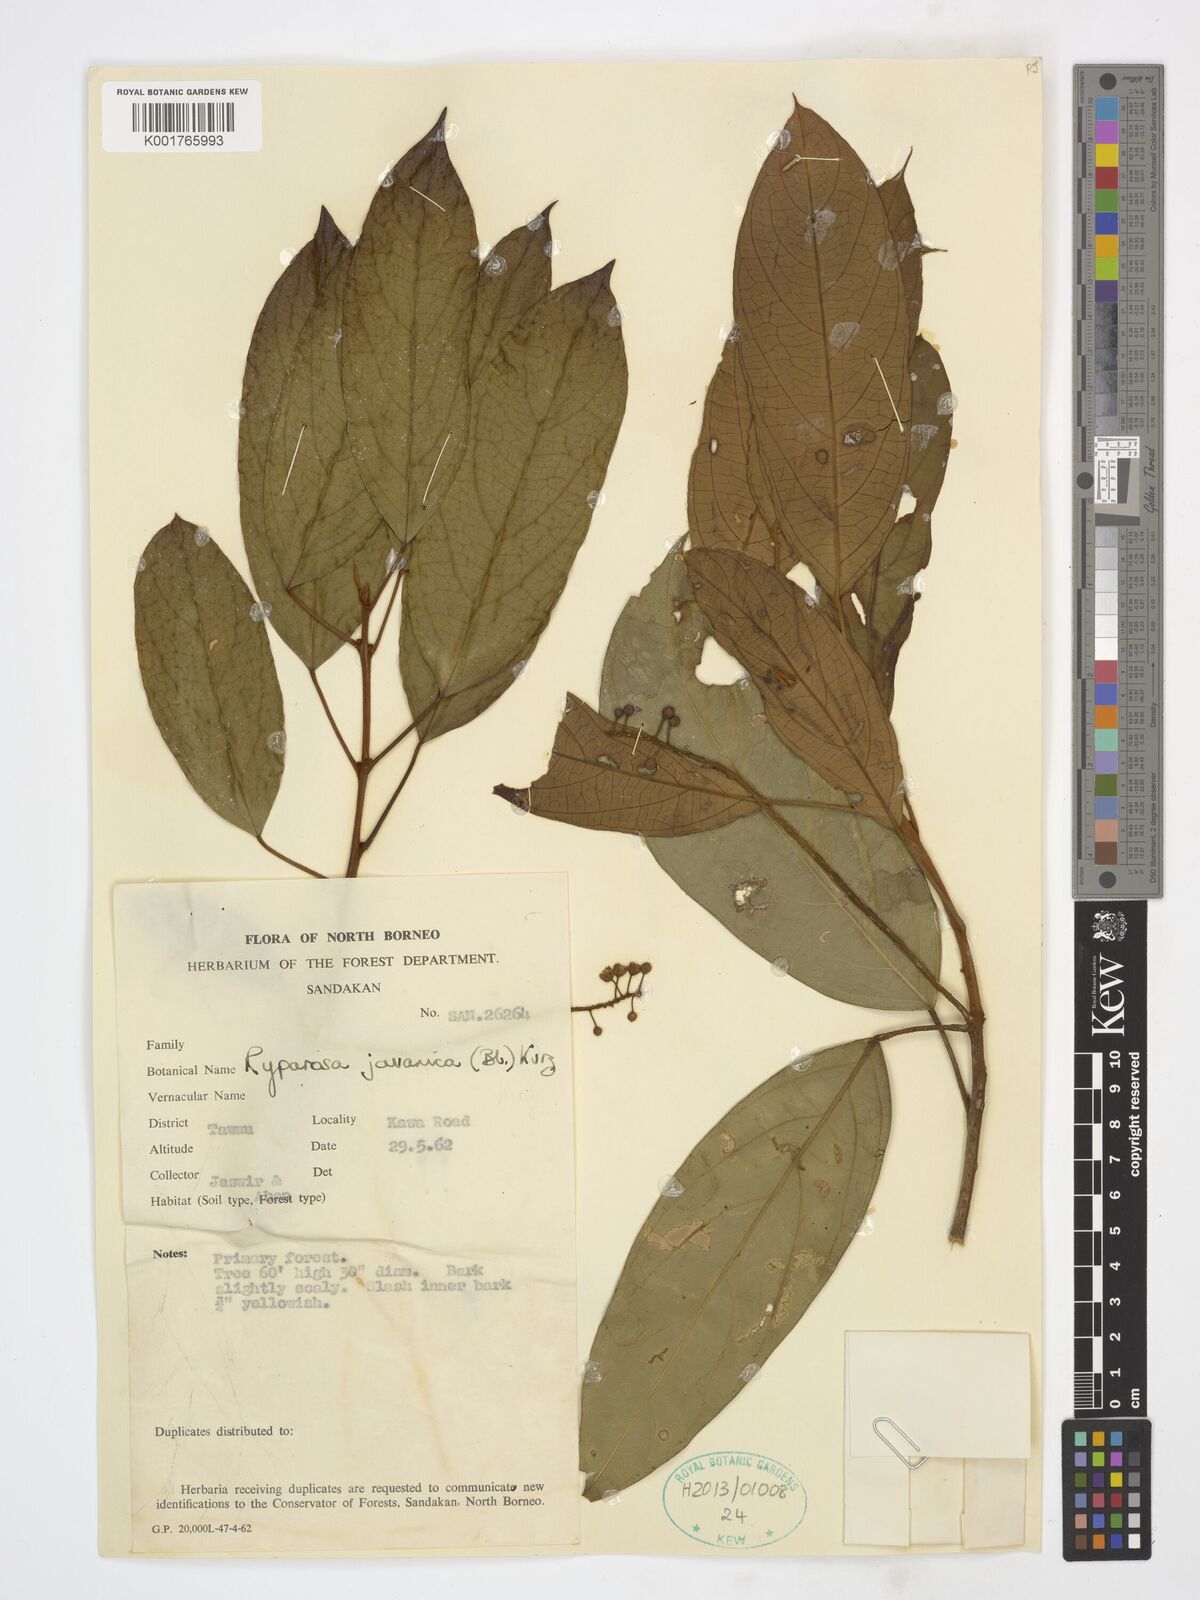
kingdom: Plantae
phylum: Tracheophyta
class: Magnoliopsida
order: Malpighiales
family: Achariaceae
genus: Ryparosa
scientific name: Ryparosa javanica
